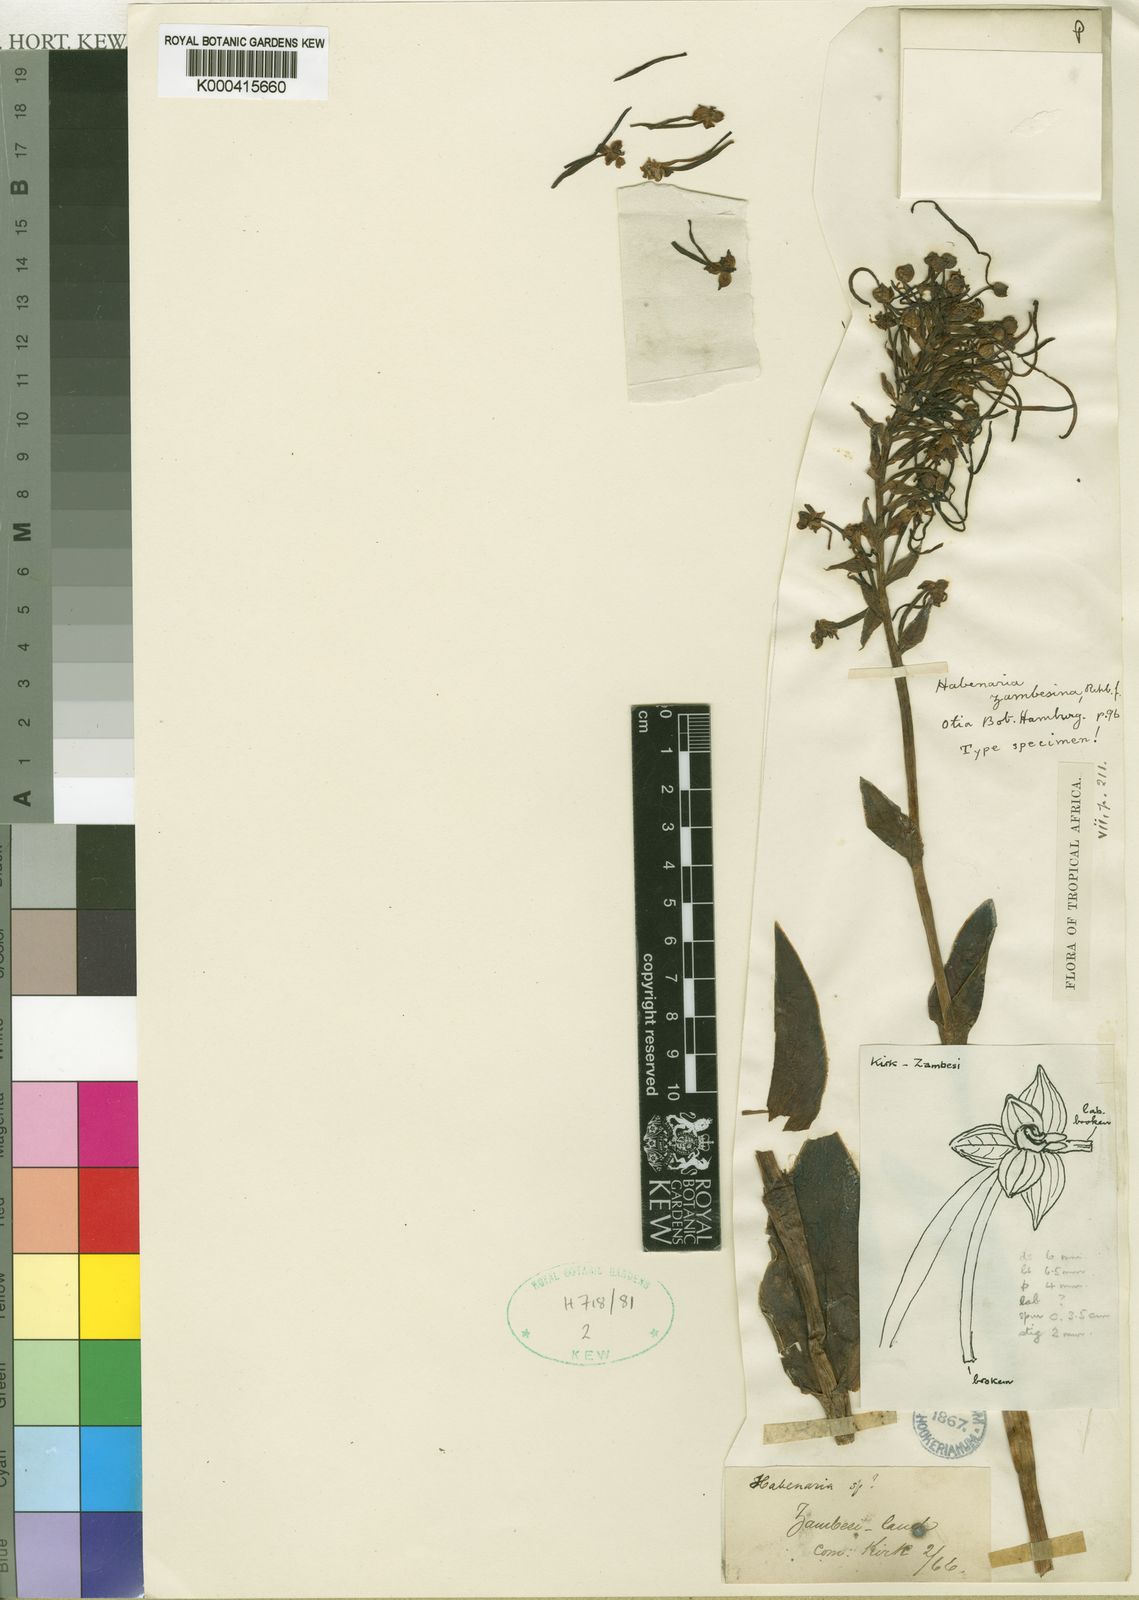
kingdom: Plantae
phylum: Tracheophyta
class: Liliopsida
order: Asparagales
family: Orchidaceae
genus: Habenaria
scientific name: Habenaria zambesina
